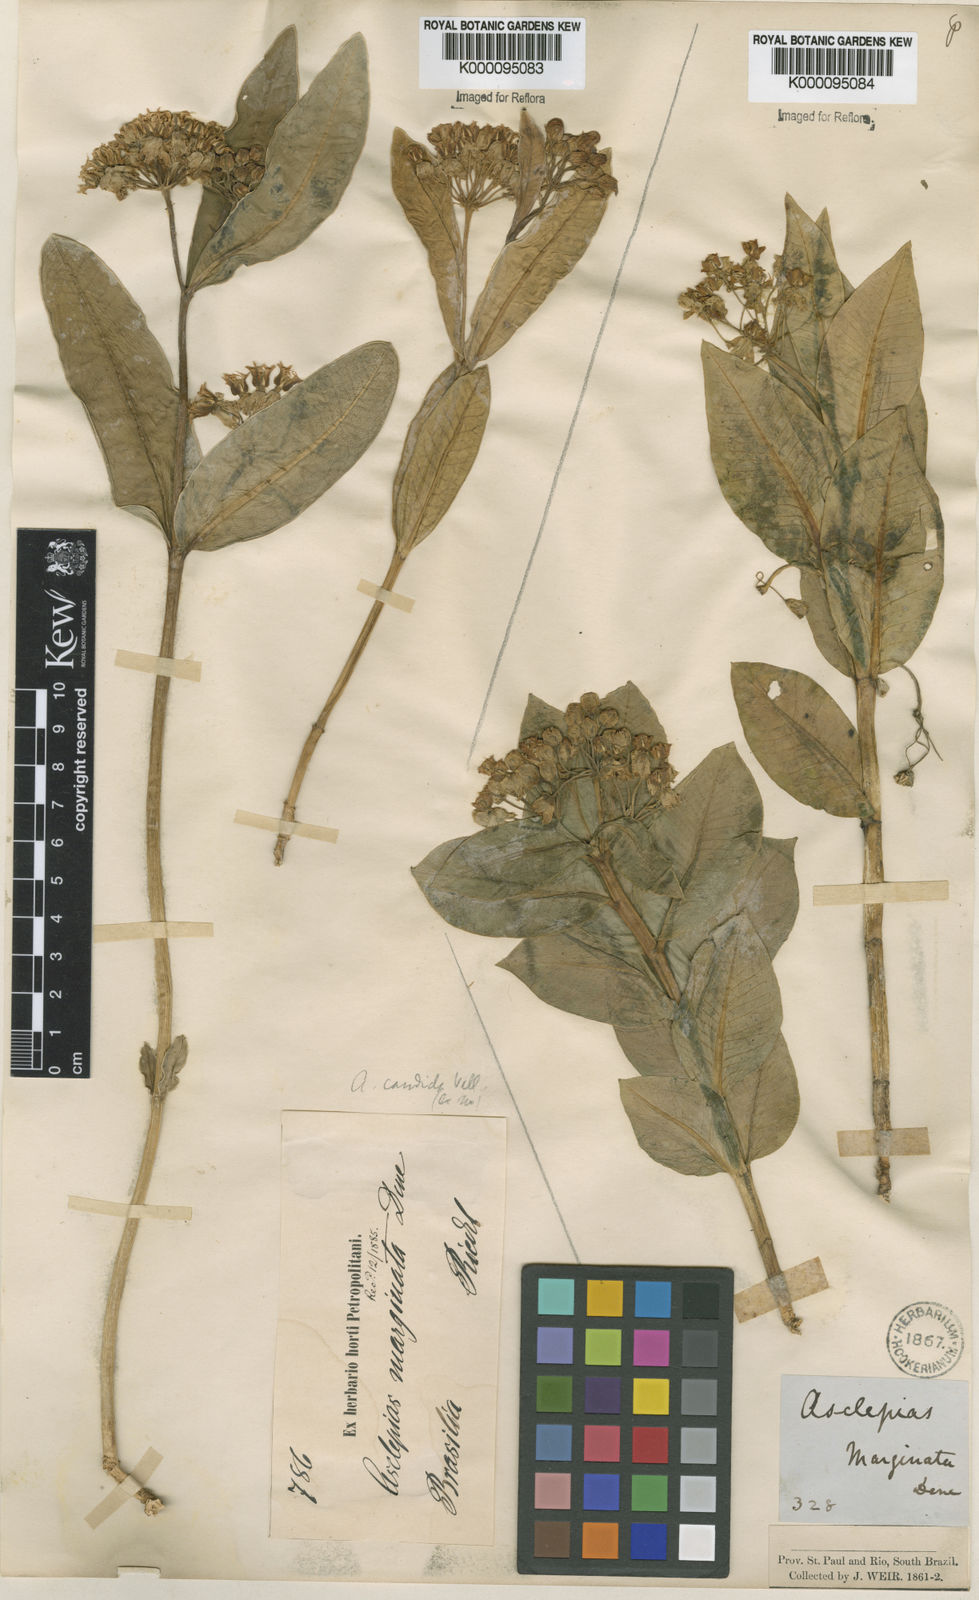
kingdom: Plantae
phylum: Tracheophyta
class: Magnoliopsida
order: Gentianales
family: Apocynaceae
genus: Asclepias
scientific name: Asclepias candida
